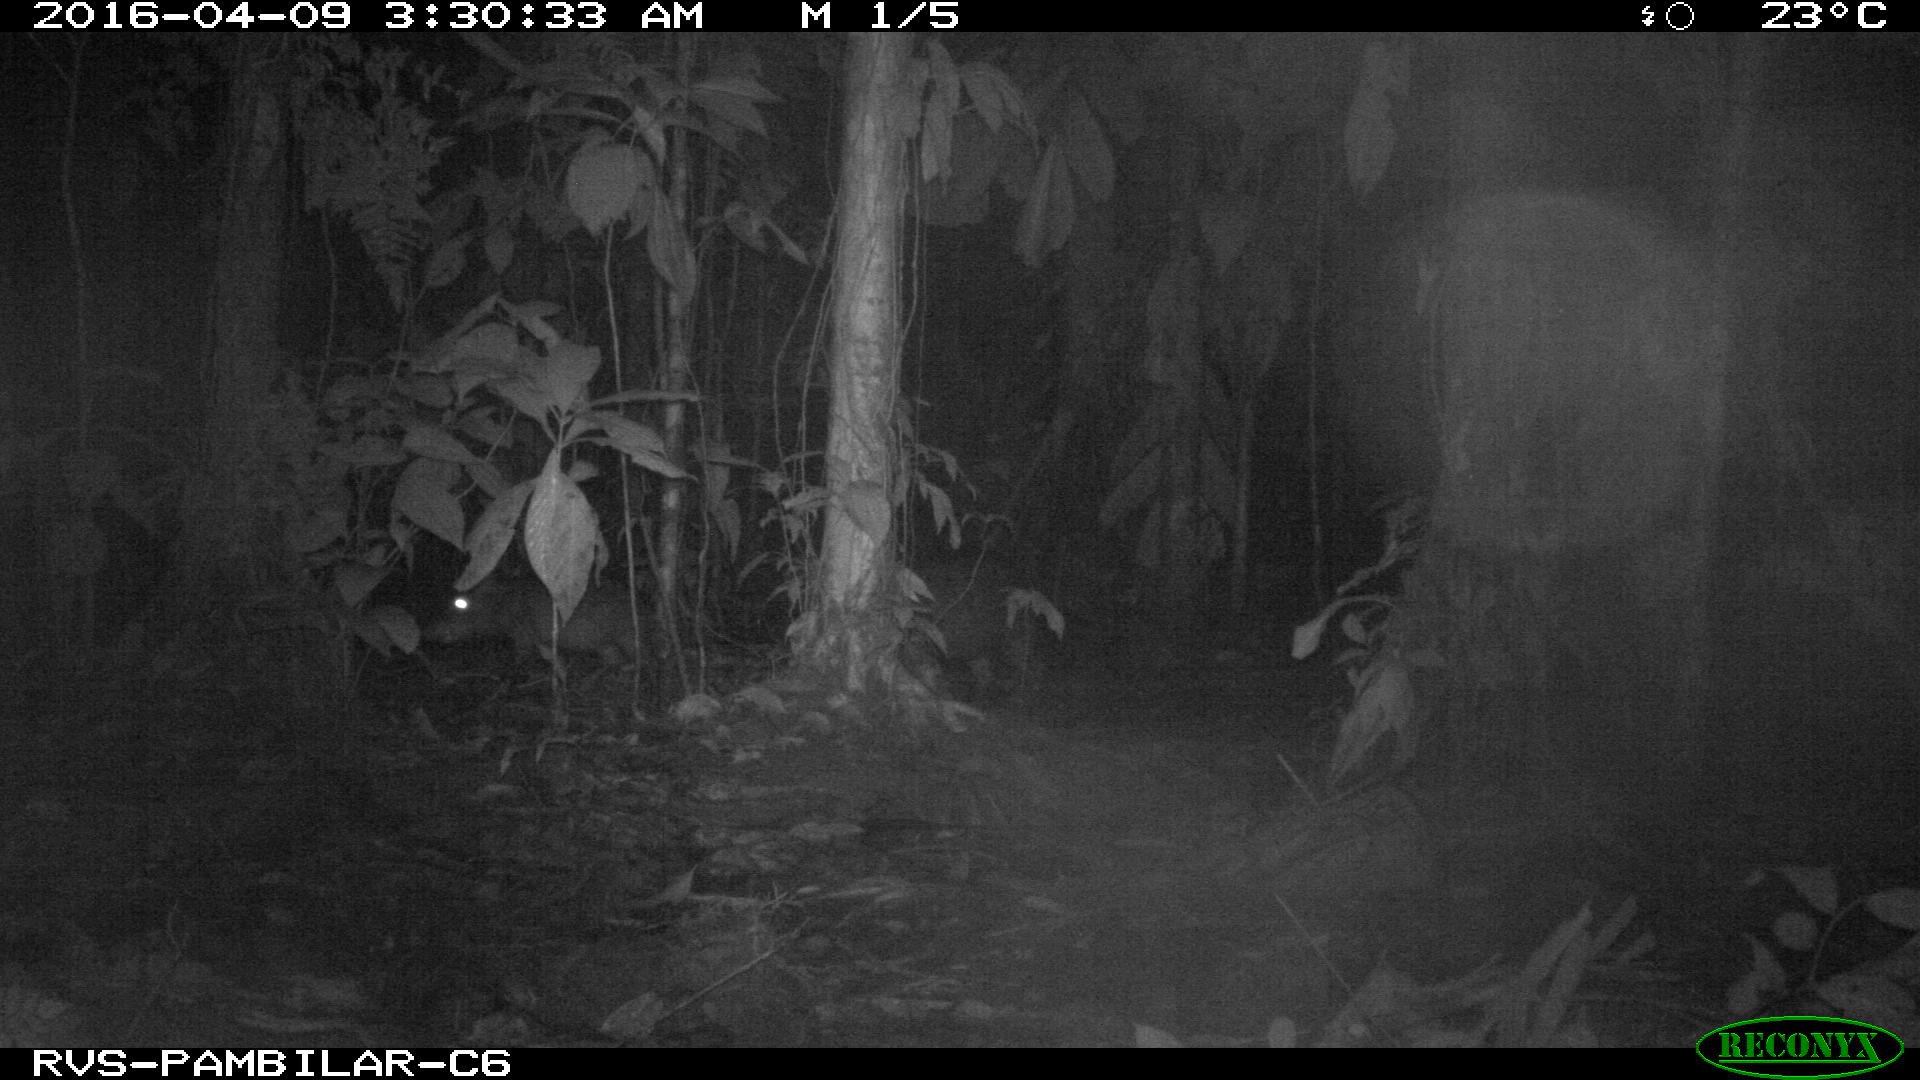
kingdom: Animalia
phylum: Chordata
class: Mammalia
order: Artiodactyla
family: Tayassuidae
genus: Tayassu
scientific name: Tayassu pecari
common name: White-lipped peccary
